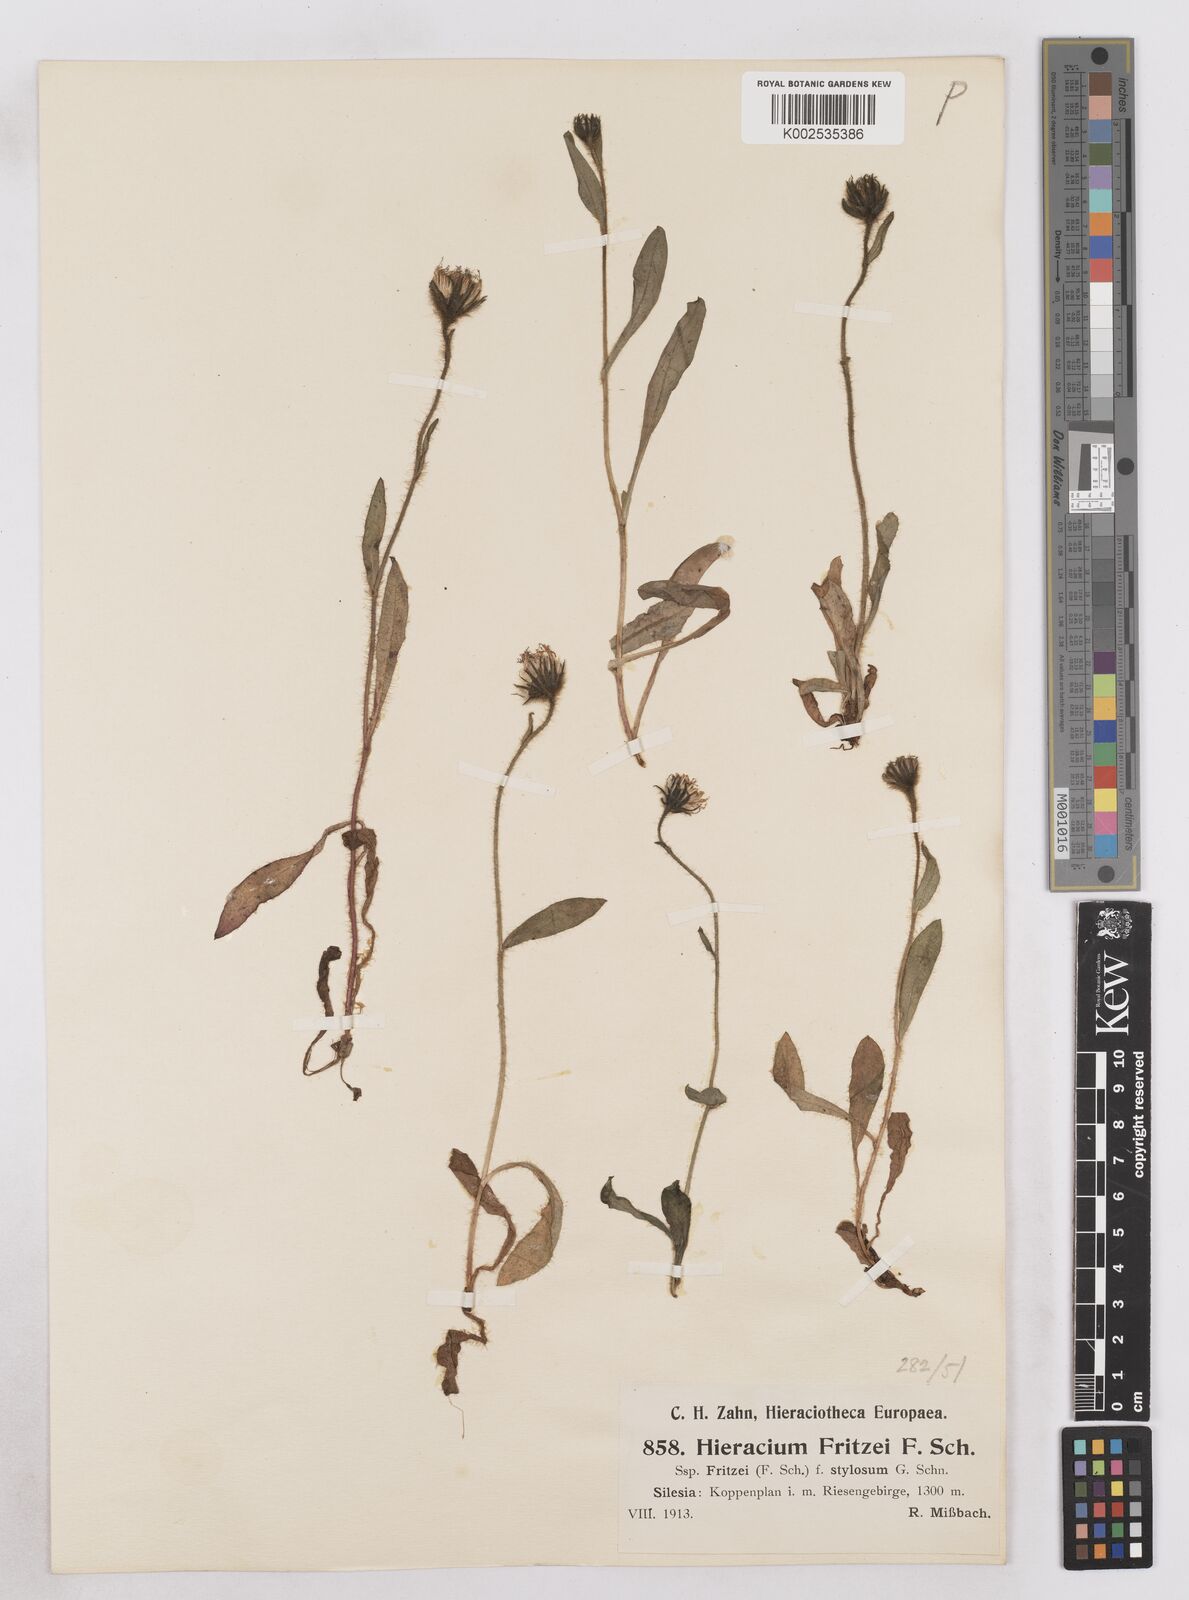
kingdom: Plantae
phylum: Tracheophyta
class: Magnoliopsida
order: Asterales
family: Asteraceae
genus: Hieracium
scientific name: Hieracium alpinum
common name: Alpine hawkweed
